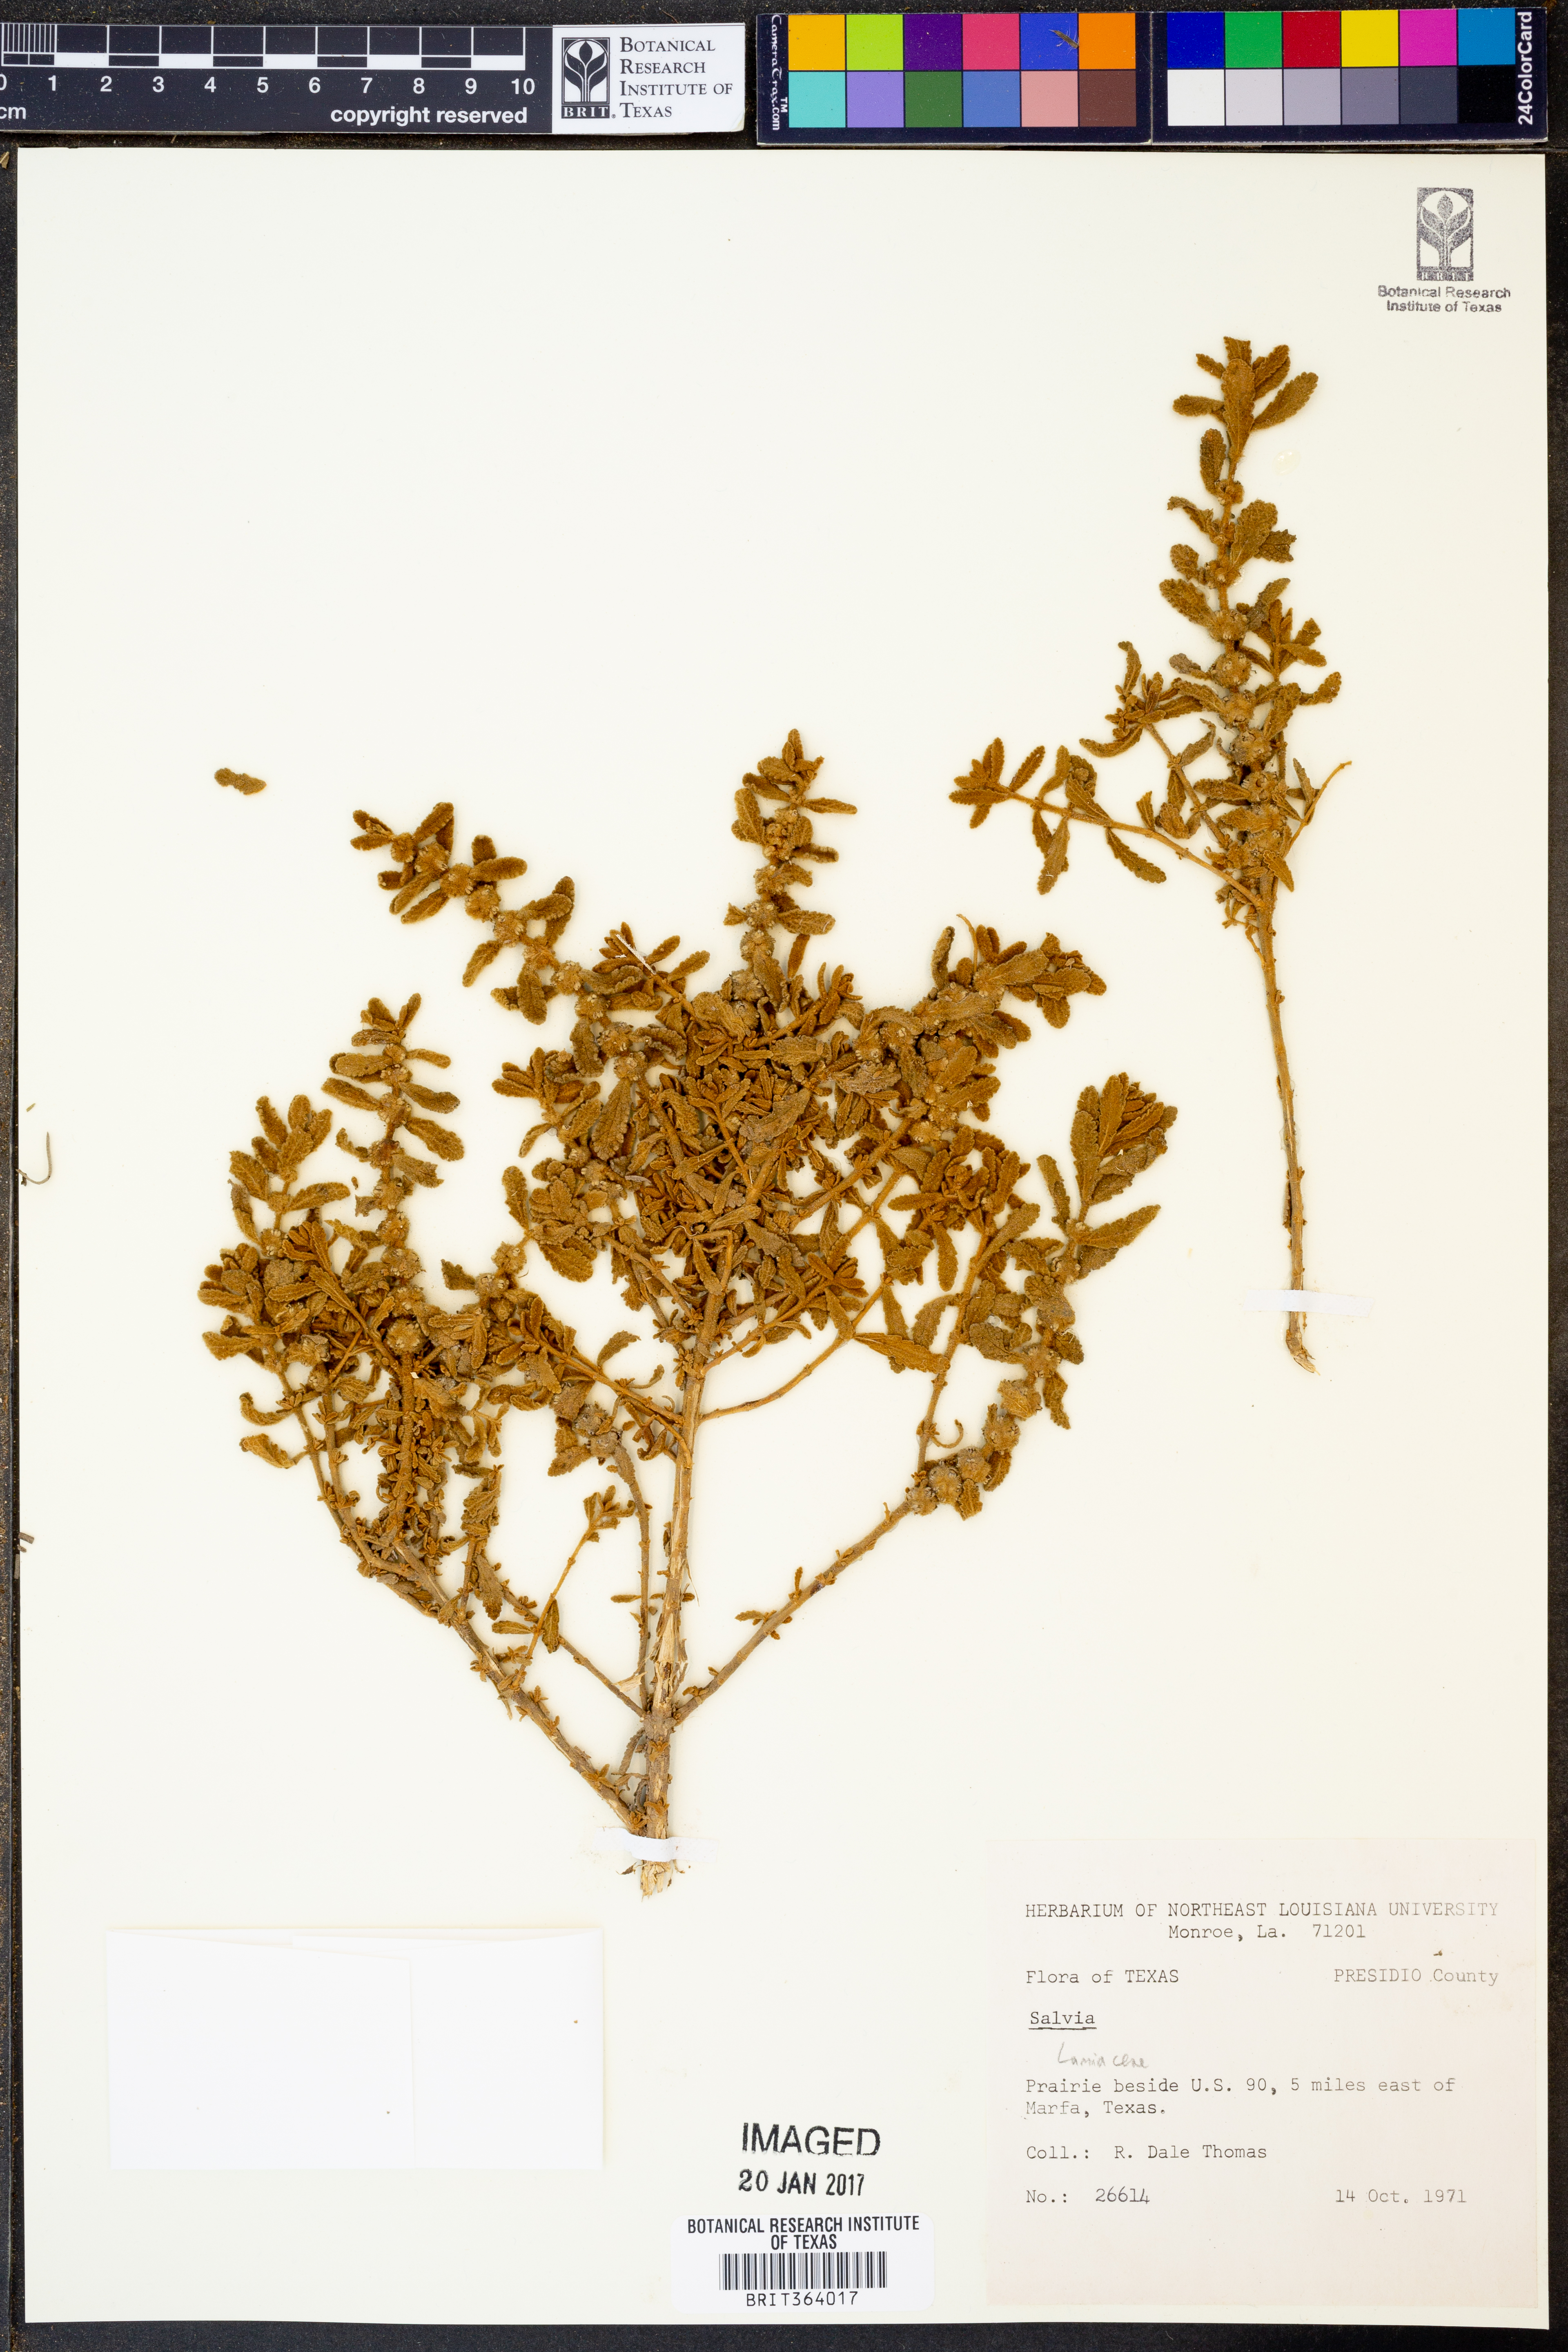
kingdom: Plantae
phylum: Tracheophyta
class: Magnoliopsida
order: Lamiales
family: Lamiaceae
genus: Salvia
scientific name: Salvia
